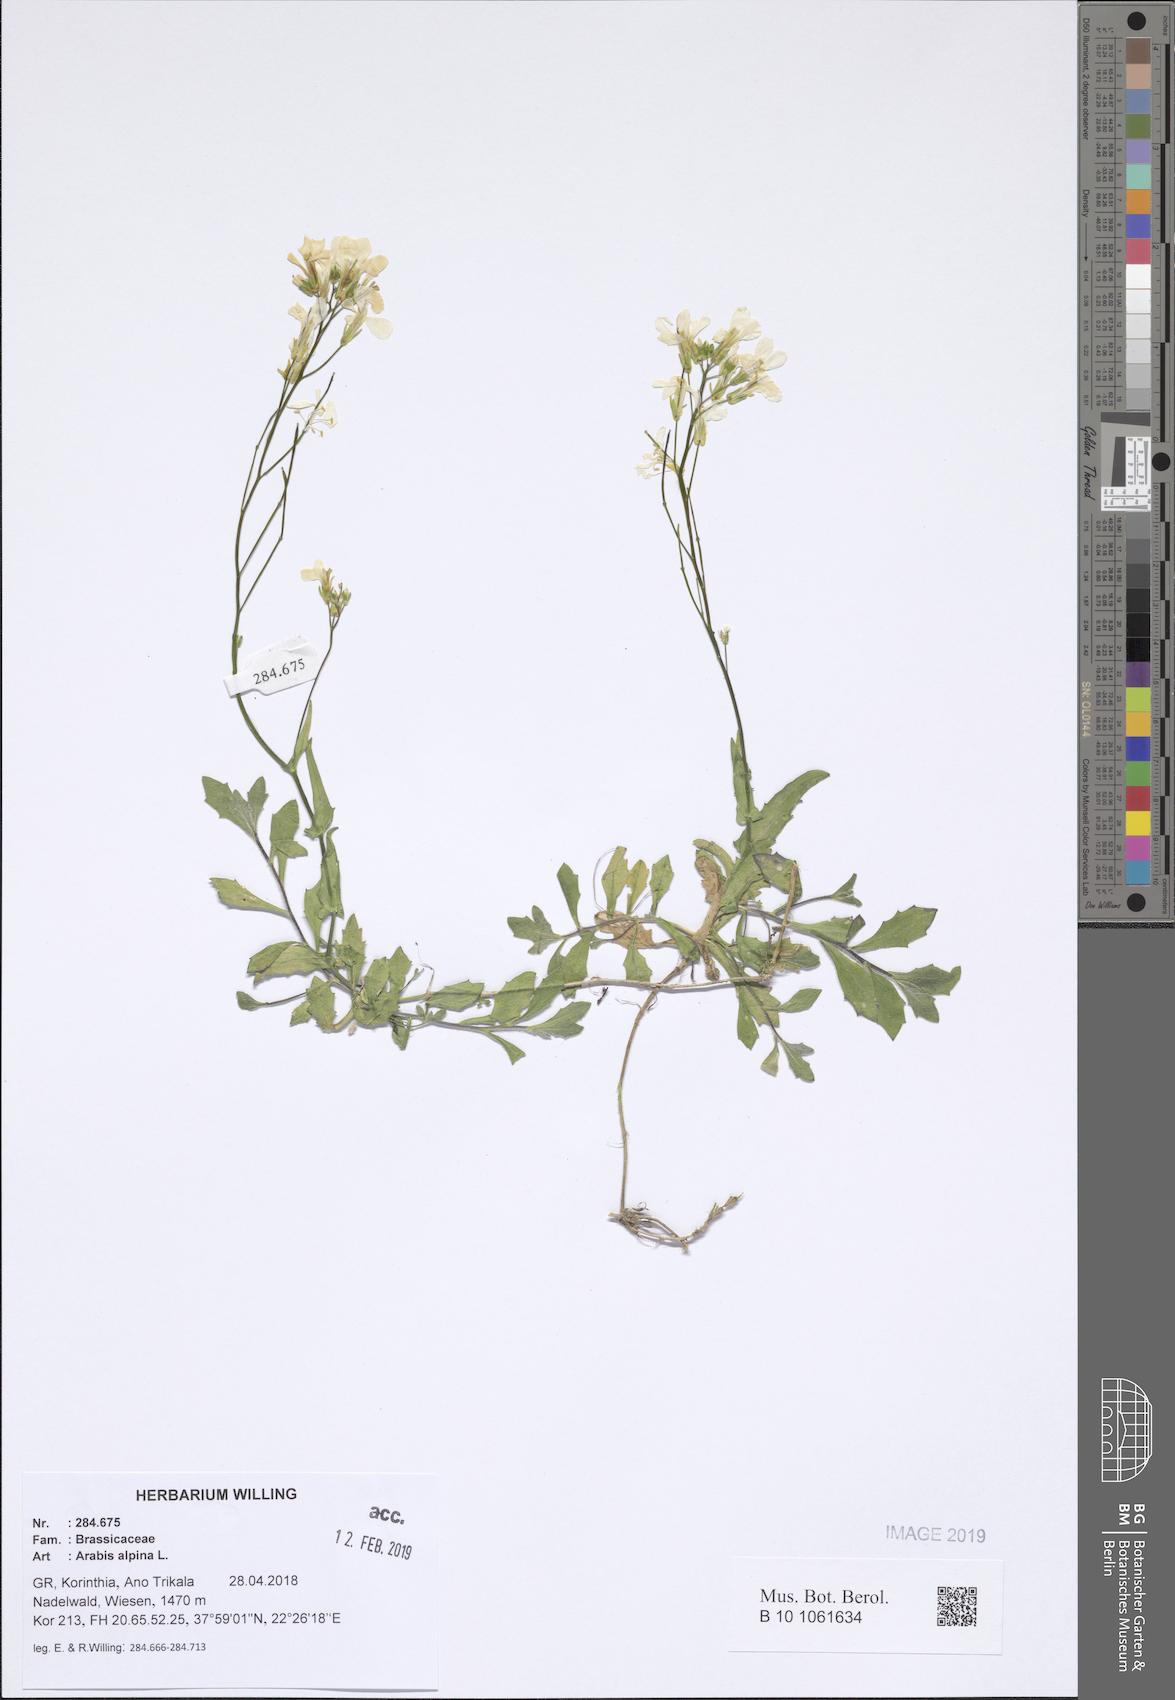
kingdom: Plantae
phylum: Tracheophyta
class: Magnoliopsida
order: Brassicales
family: Brassicaceae
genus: Arabis
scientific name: Arabis alpina
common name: Alpine rock-cress
